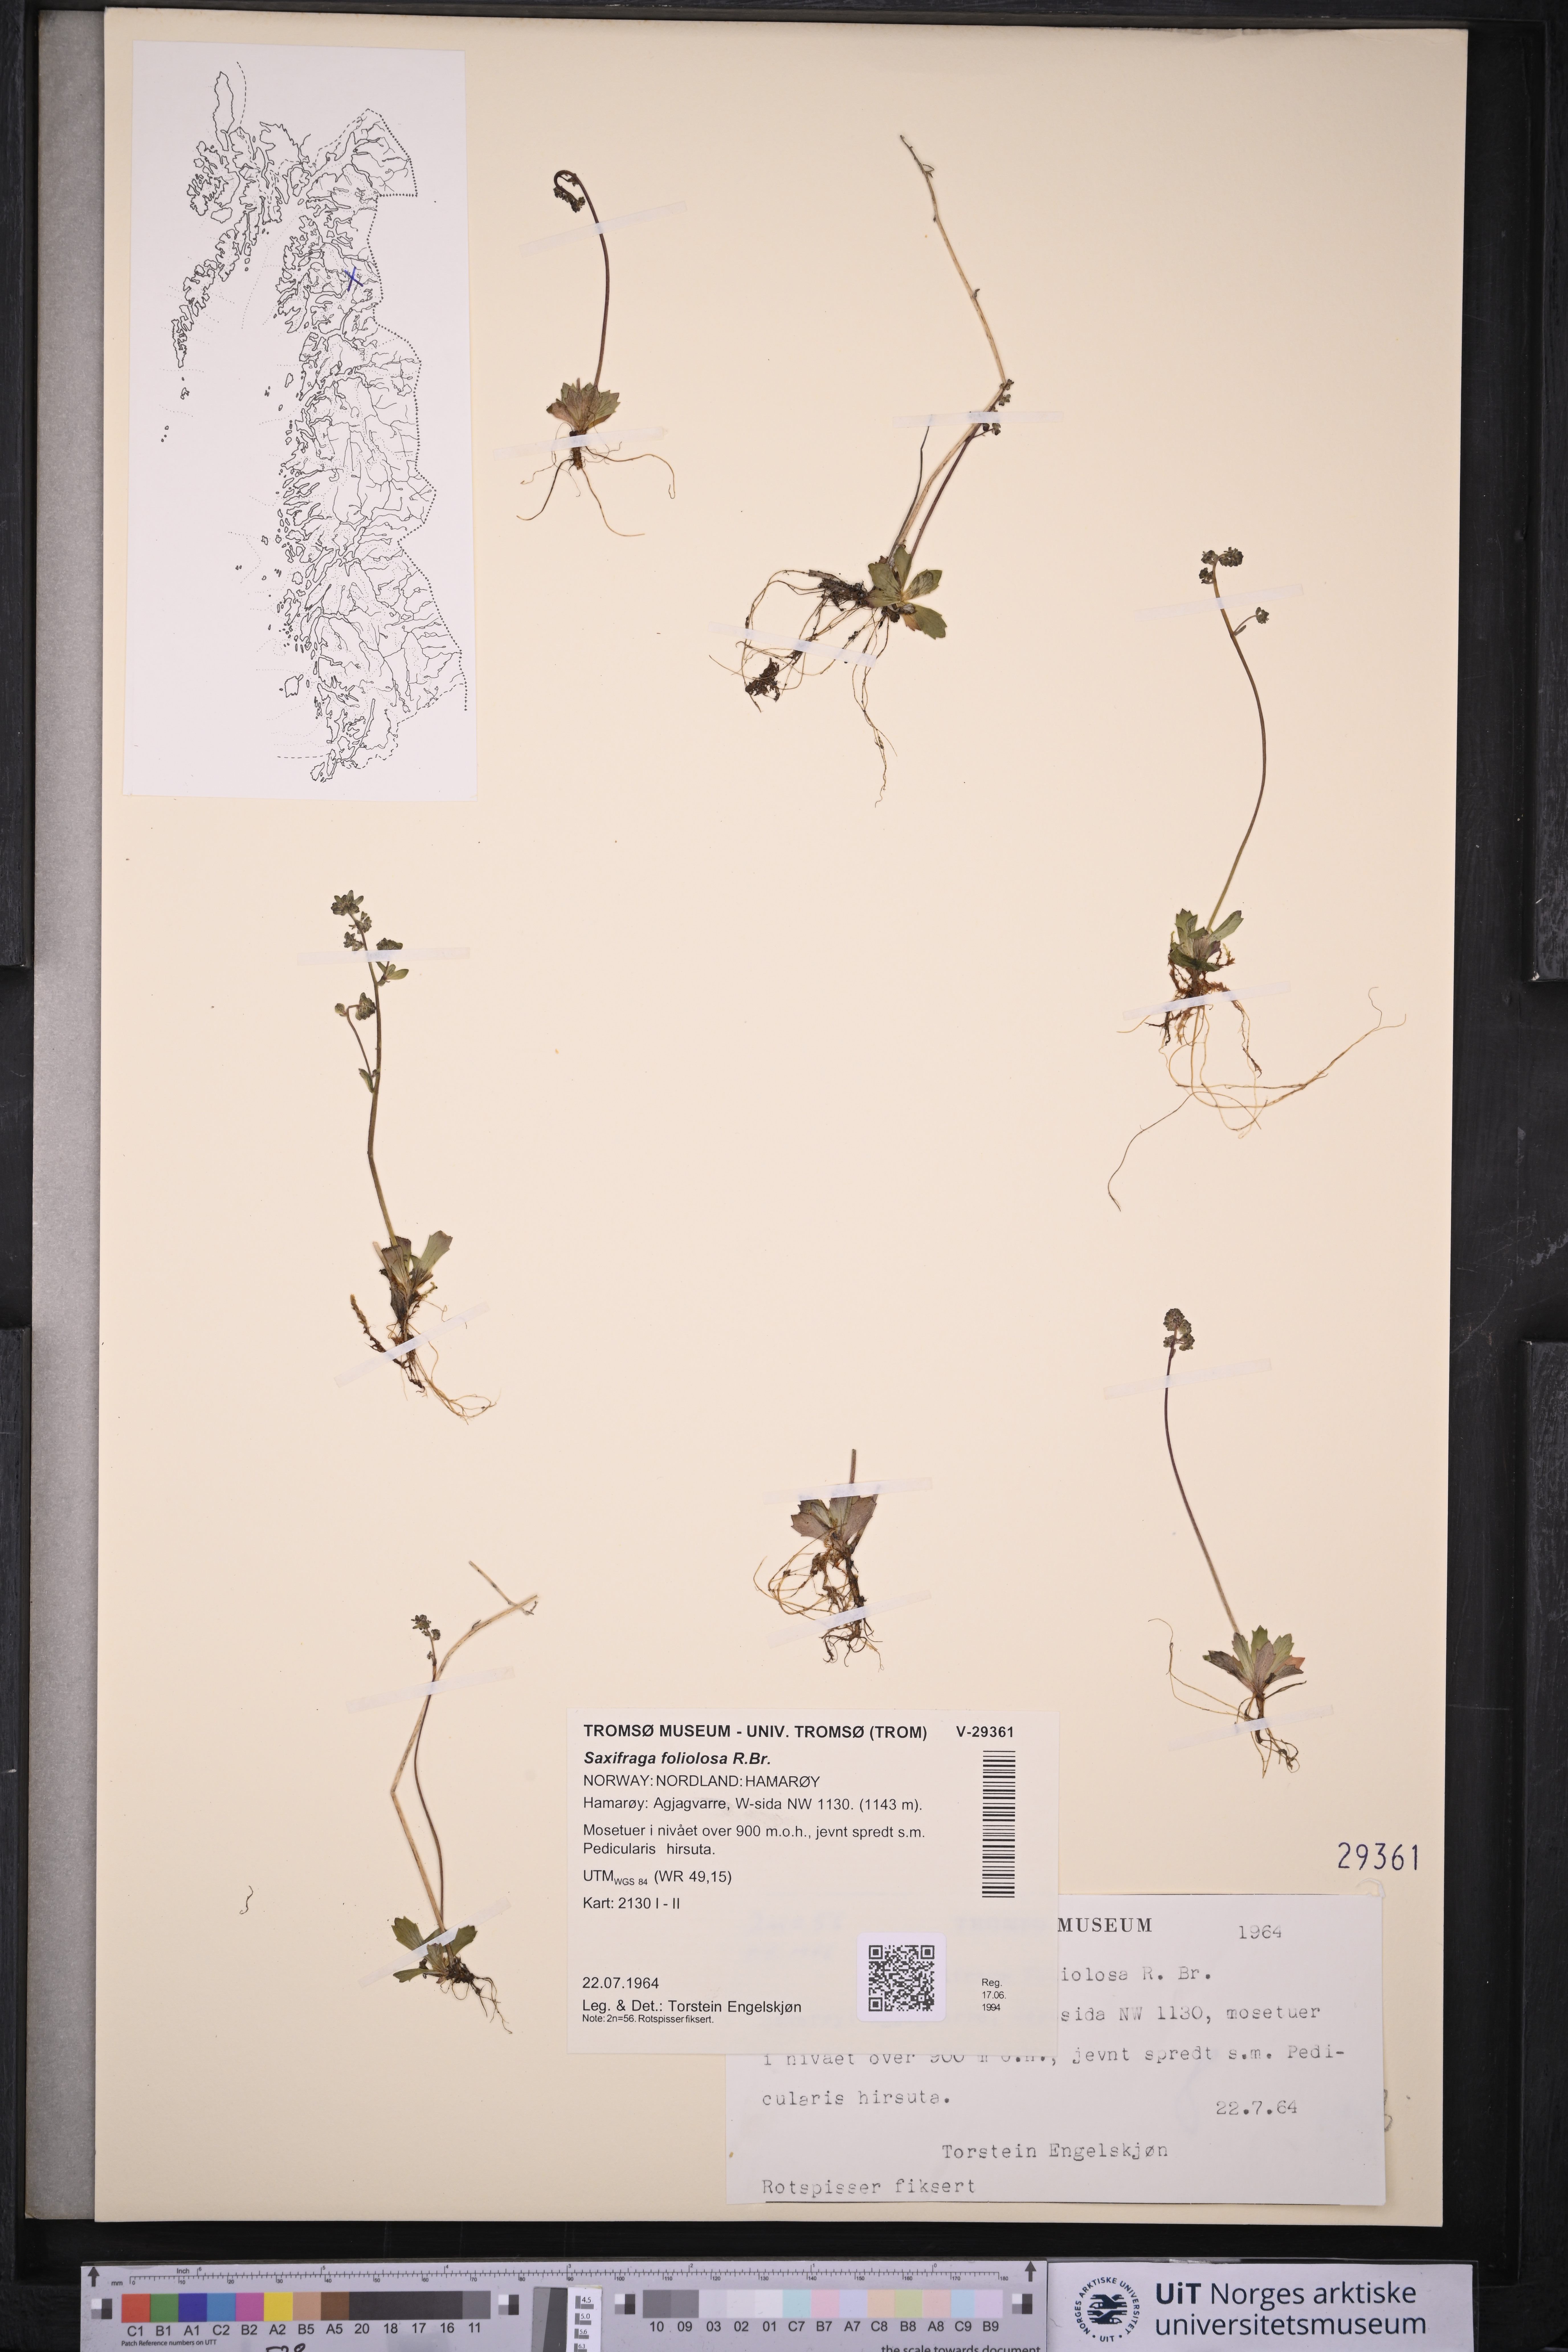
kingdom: Plantae
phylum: Tracheophyta
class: Magnoliopsida
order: Saxifragales
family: Saxifragaceae
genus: Micranthes
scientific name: Micranthes foliolosa
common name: Leafystem saxifrage
